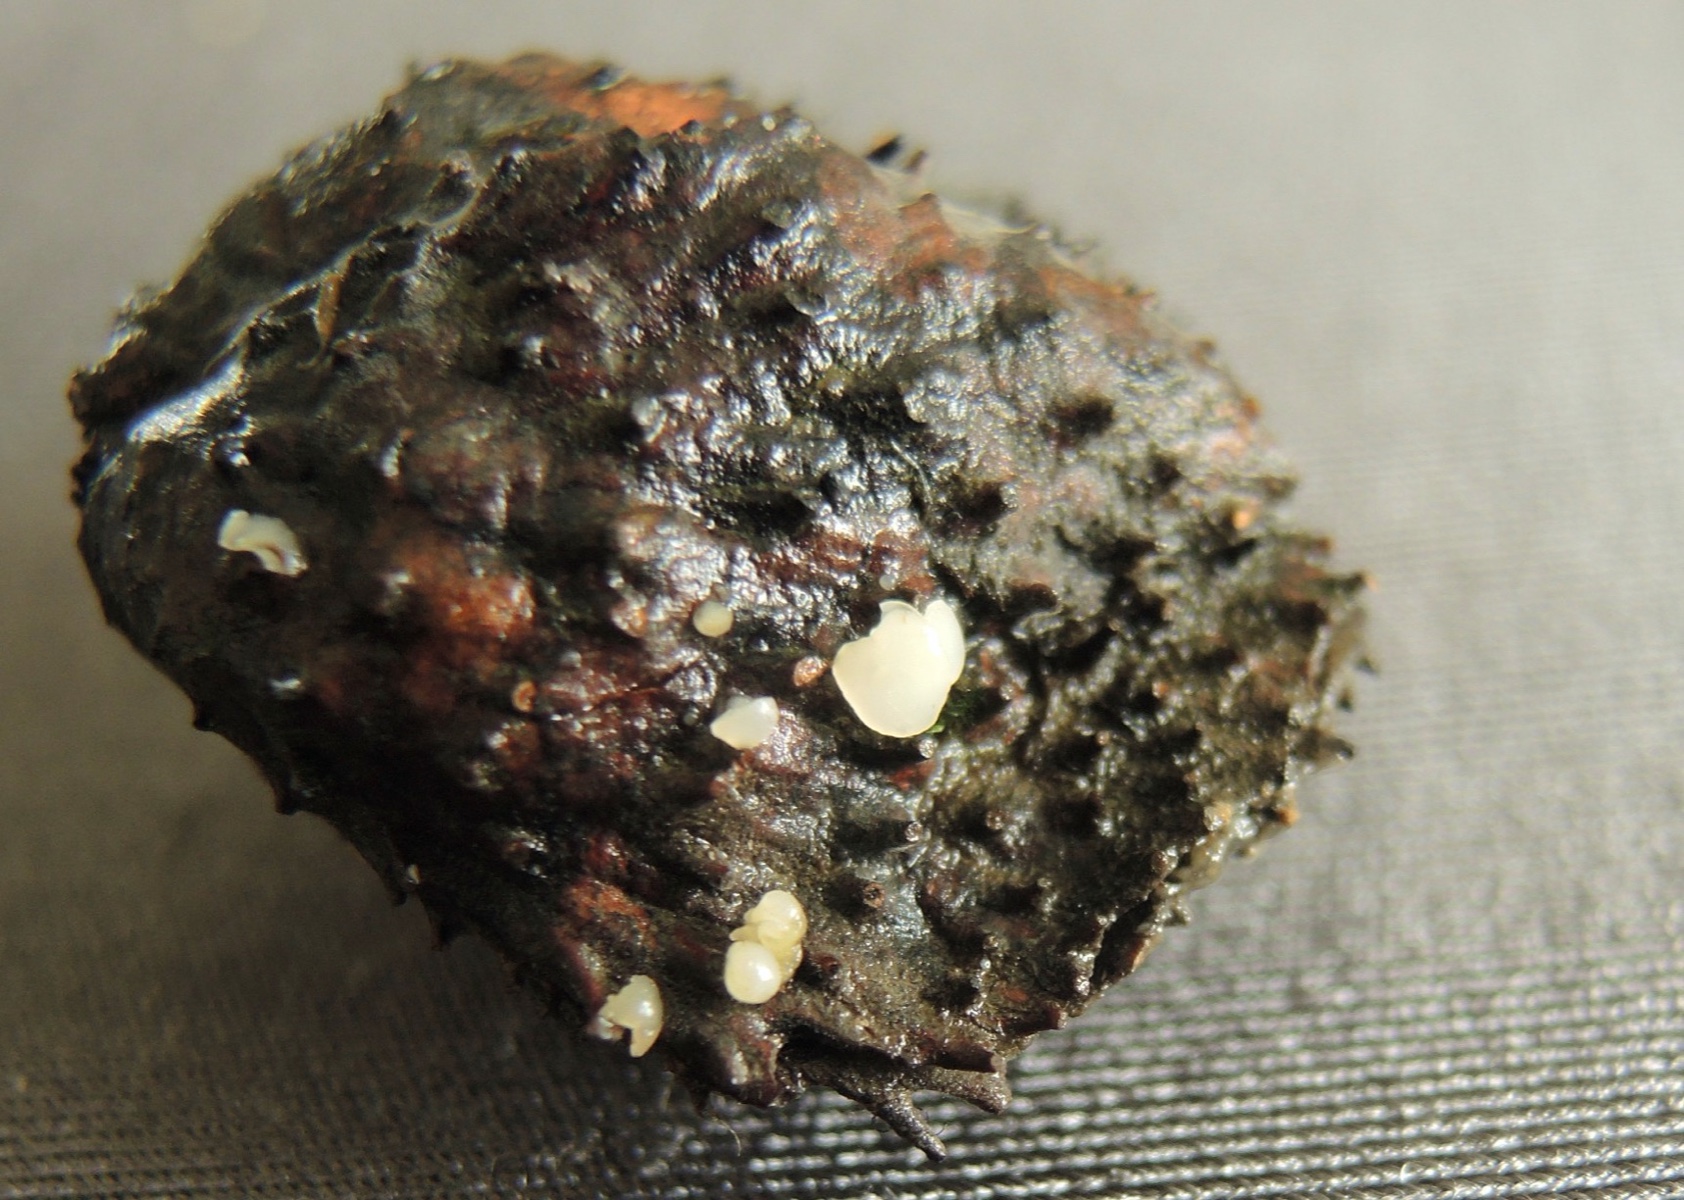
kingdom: Fungi
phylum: Ascomycota
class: Leotiomycetes
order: Helotiales
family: Helotiaceae
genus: Hymenoscyphus
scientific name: Hymenoscyphus fagineus
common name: vellugtende stilkskive
